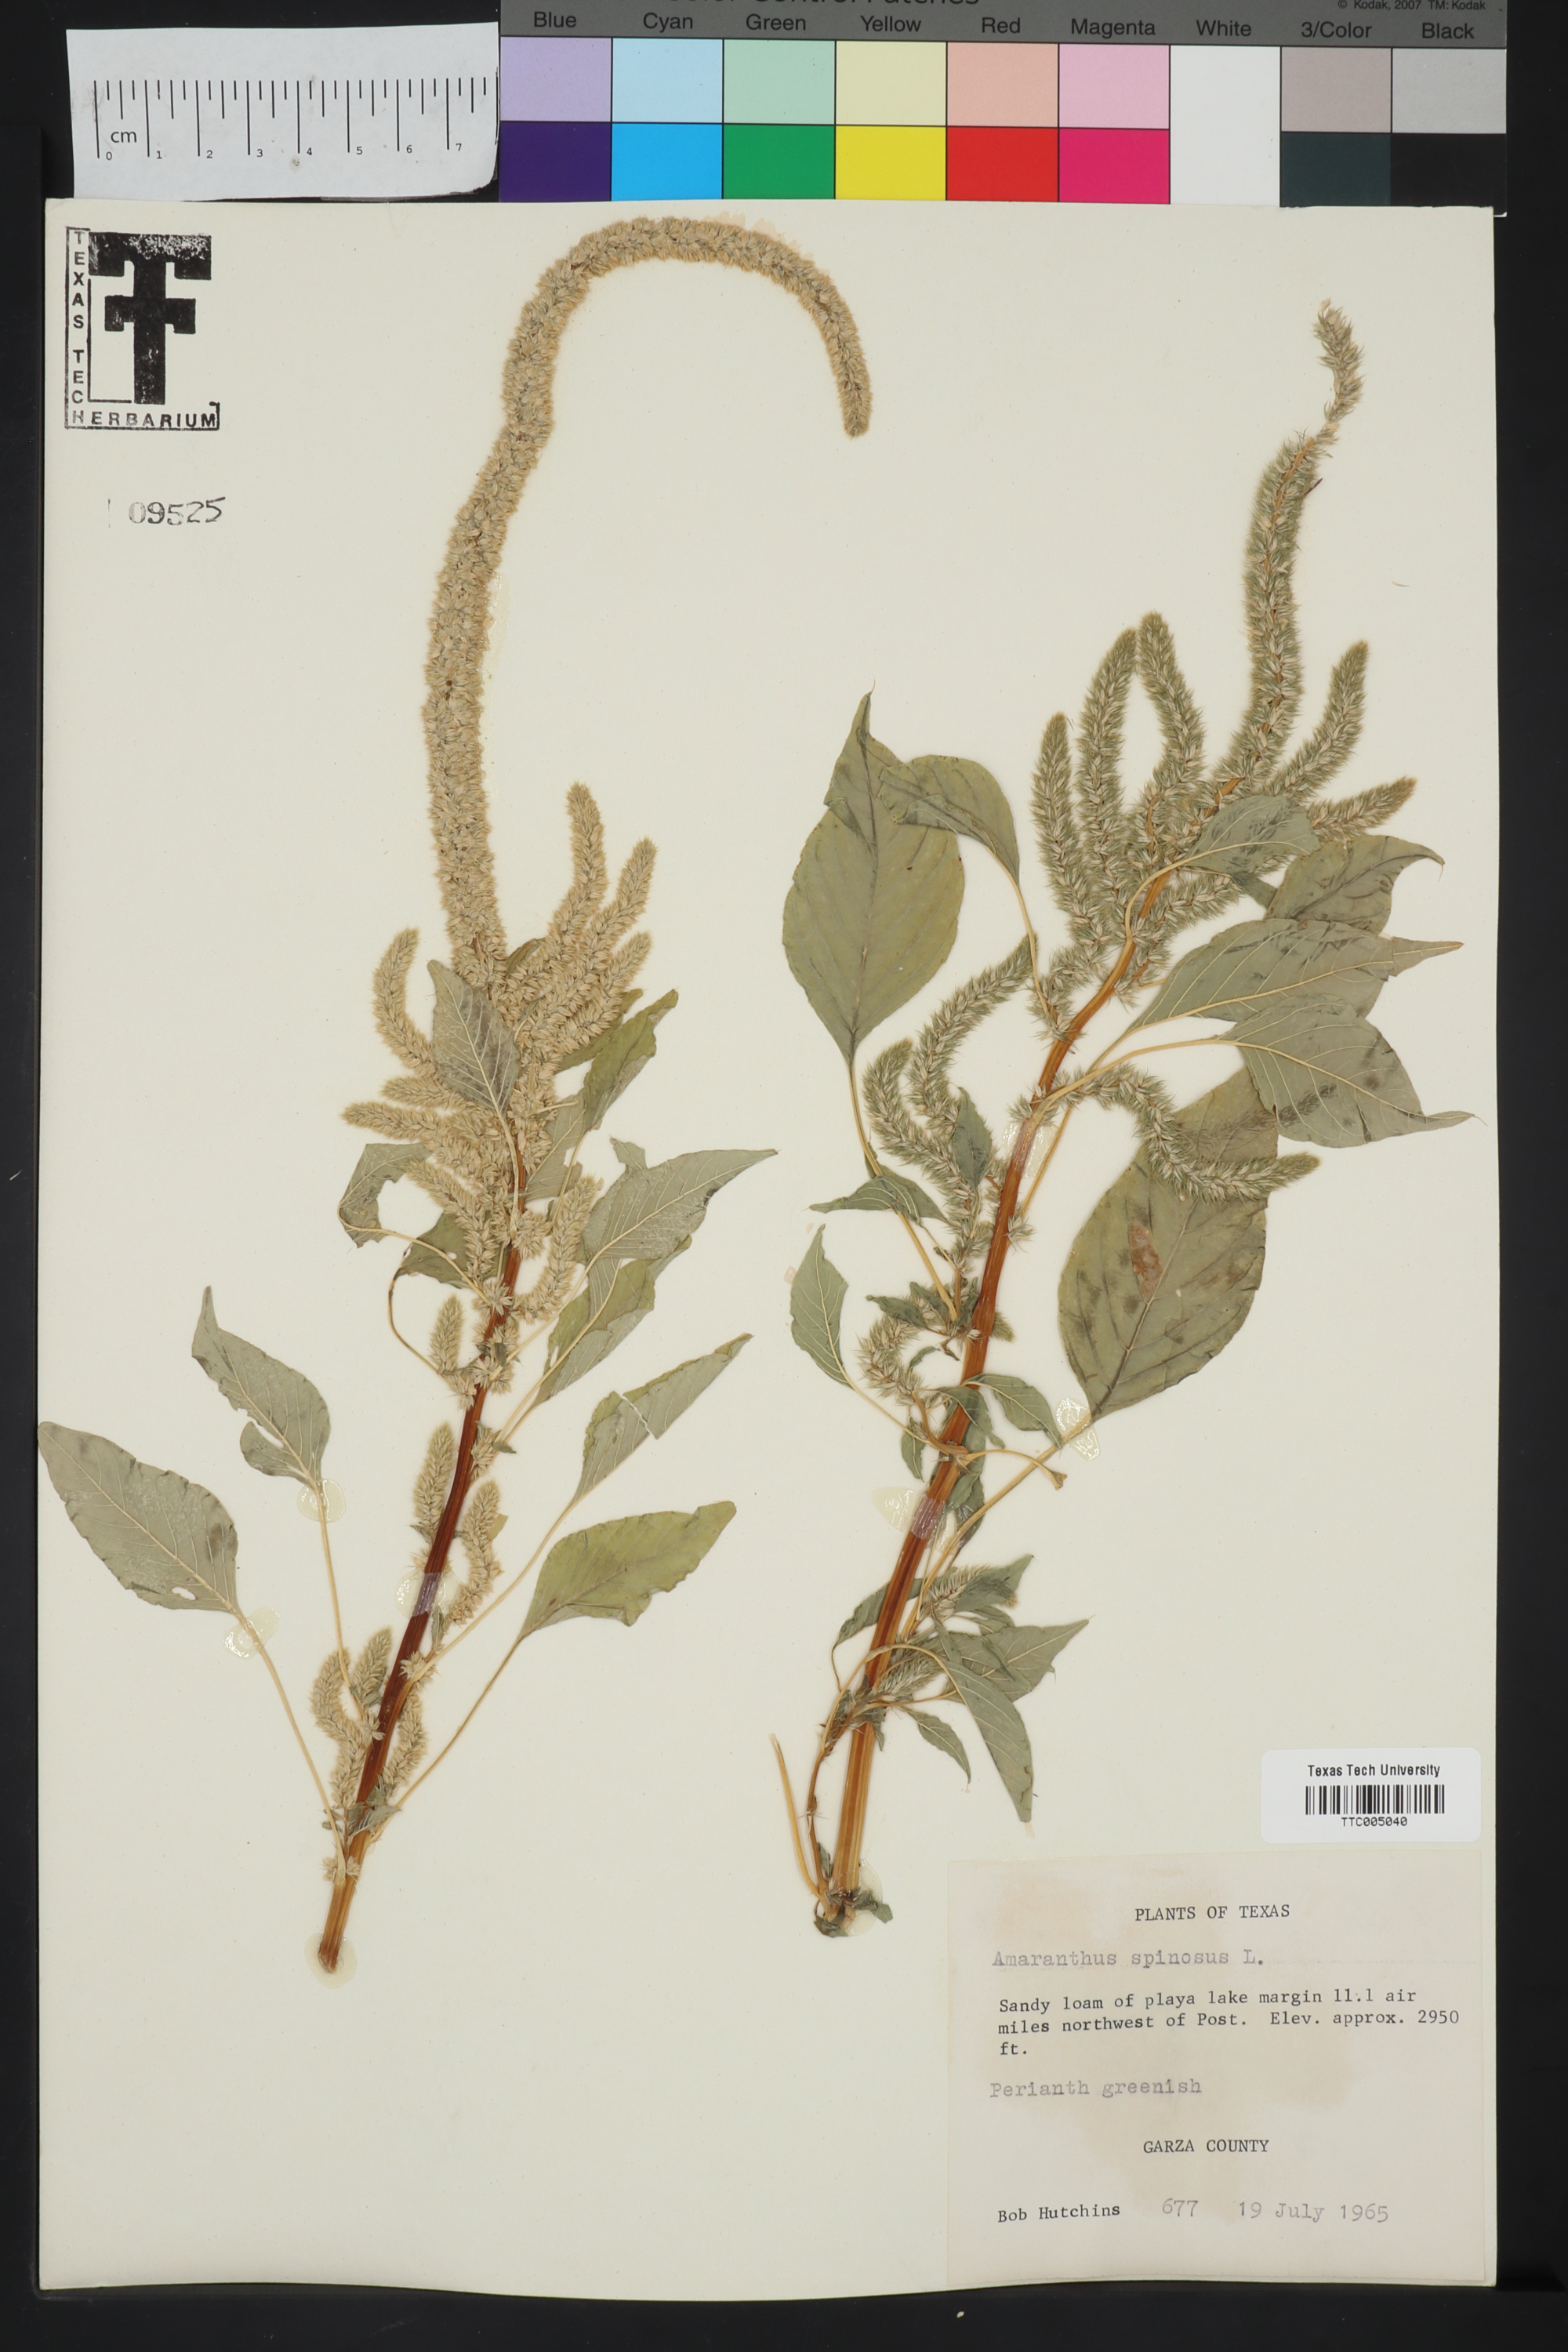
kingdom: Plantae
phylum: Tracheophyta
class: Magnoliopsida
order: Caryophyllales
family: Amaranthaceae
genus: Amaranthus
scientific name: Amaranthus spinosus
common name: Spiny amaranth
